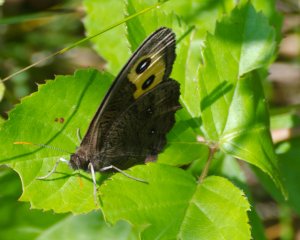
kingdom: Animalia
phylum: Arthropoda
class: Insecta
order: Lepidoptera
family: Nymphalidae
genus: Cercyonis
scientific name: Cercyonis pegala
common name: Common Wood-Nymph
